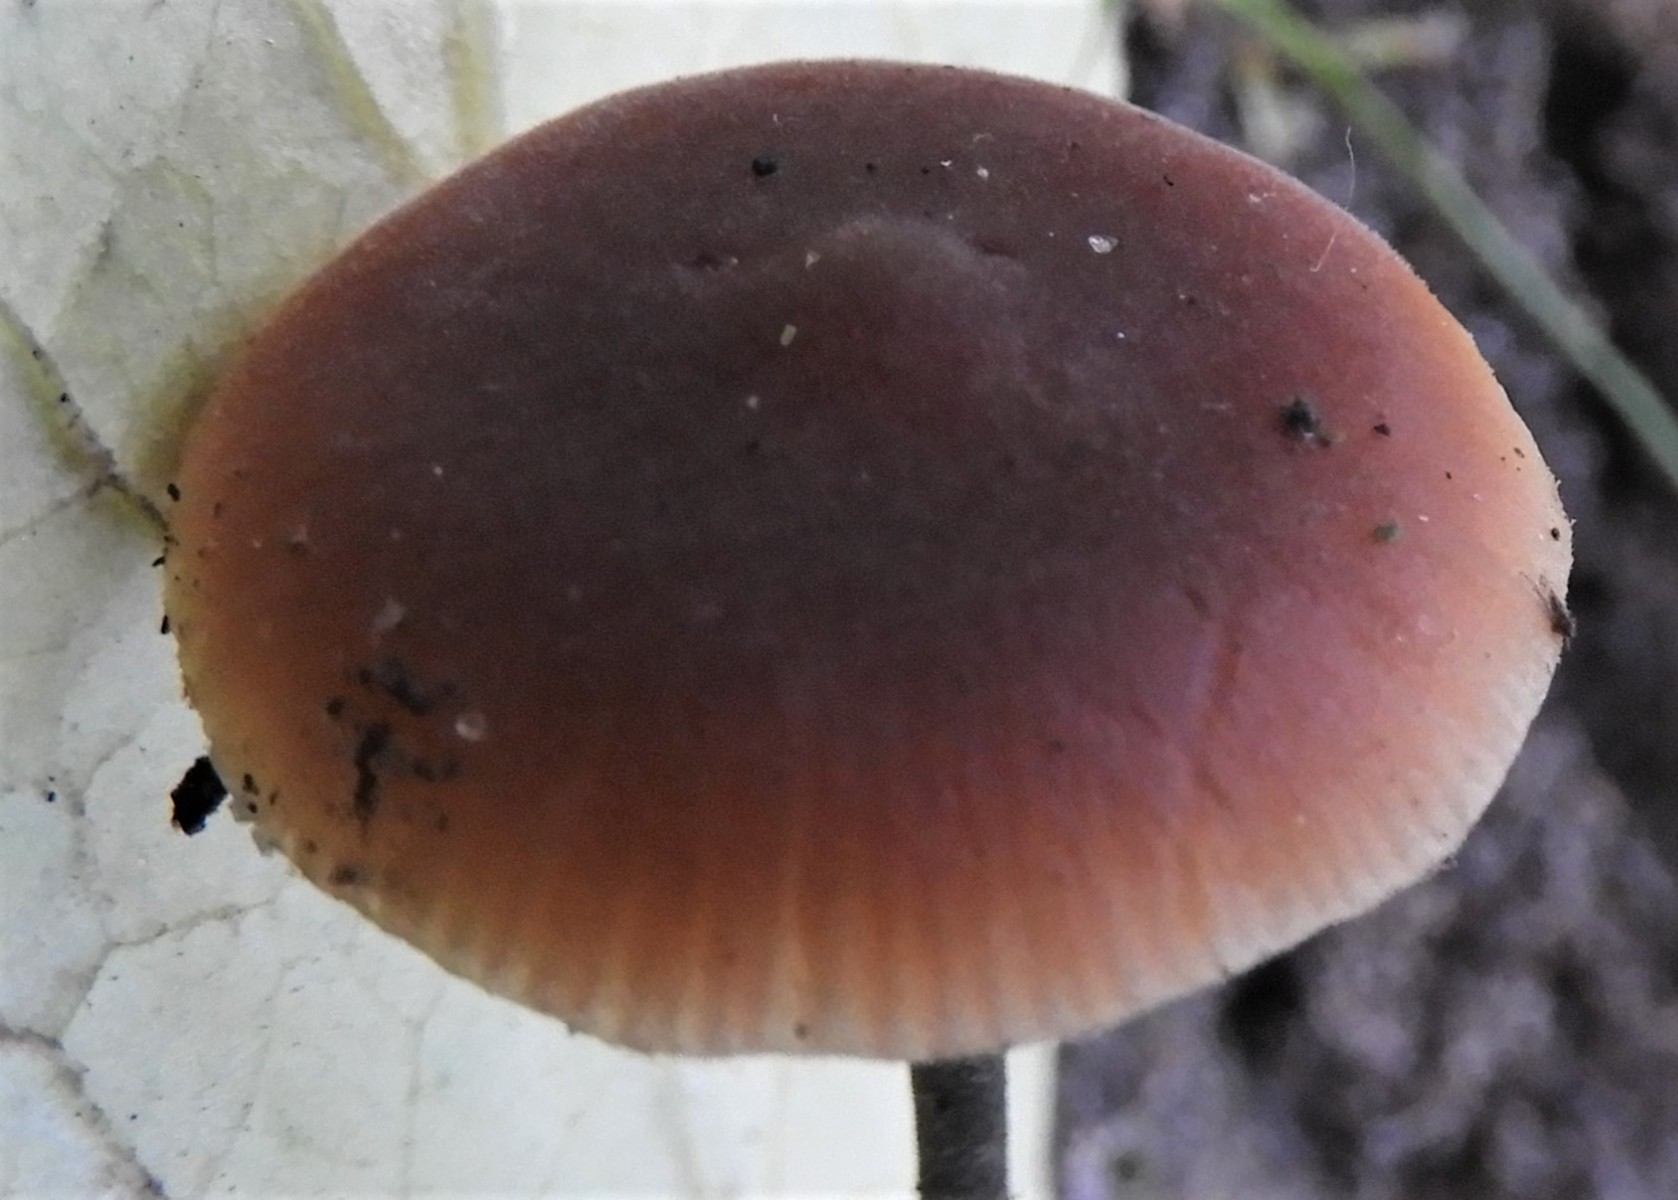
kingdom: Fungi
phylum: Basidiomycota
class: Agaricomycetes
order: Agaricales
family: Macrocystidiaceae
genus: Macrocystidia
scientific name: Macrocystidia cucumis
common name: agurkehat
